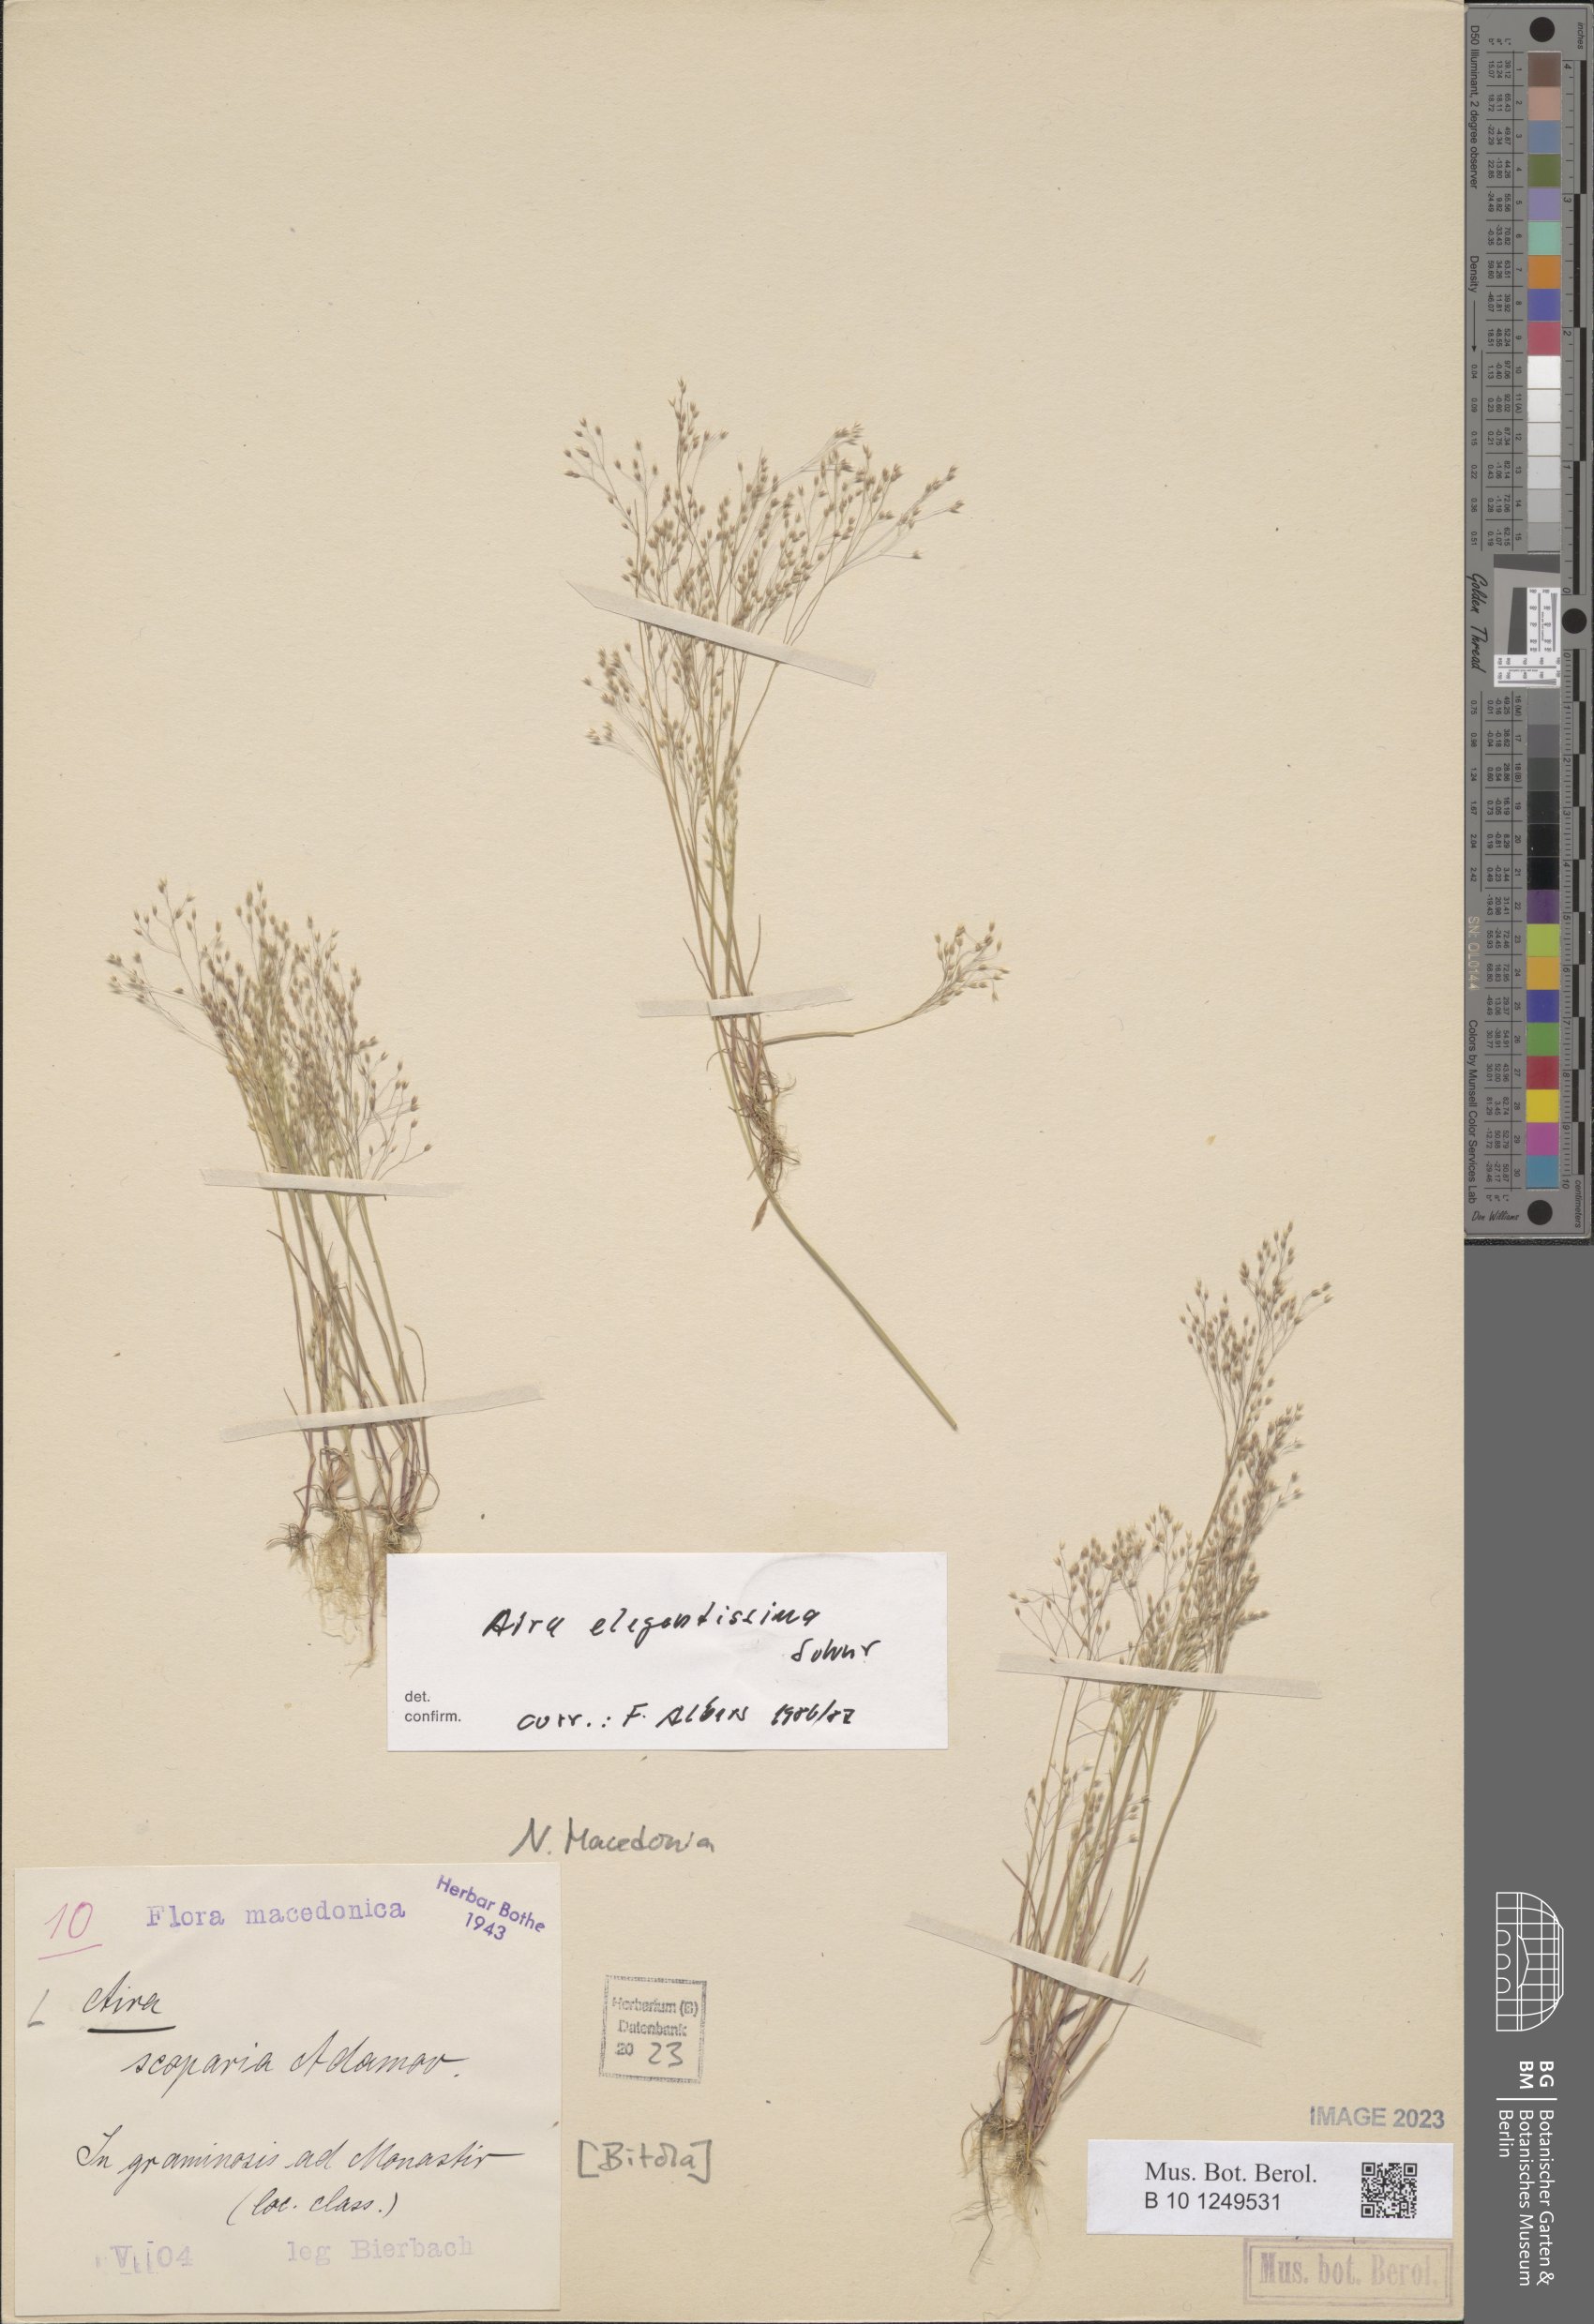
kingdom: Plantae
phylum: Tracheophyta
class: Liliopsida
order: Poales
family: Poaceae
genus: Aira
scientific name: Aira scoparia
